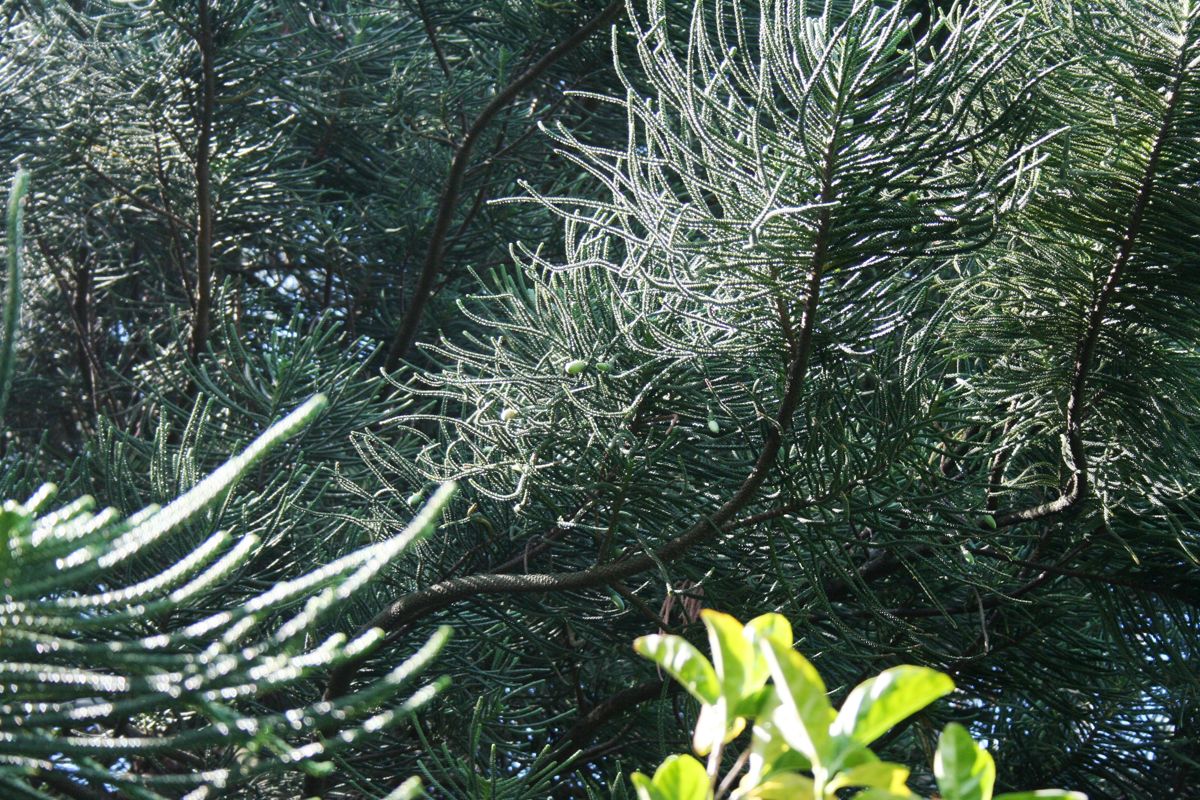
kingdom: Plantae
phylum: Tracheophyta
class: Pinopsida
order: Pinales
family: Araucariaceae
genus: Araucaria
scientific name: Araucaria heterophylla
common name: Norfolk island pine
